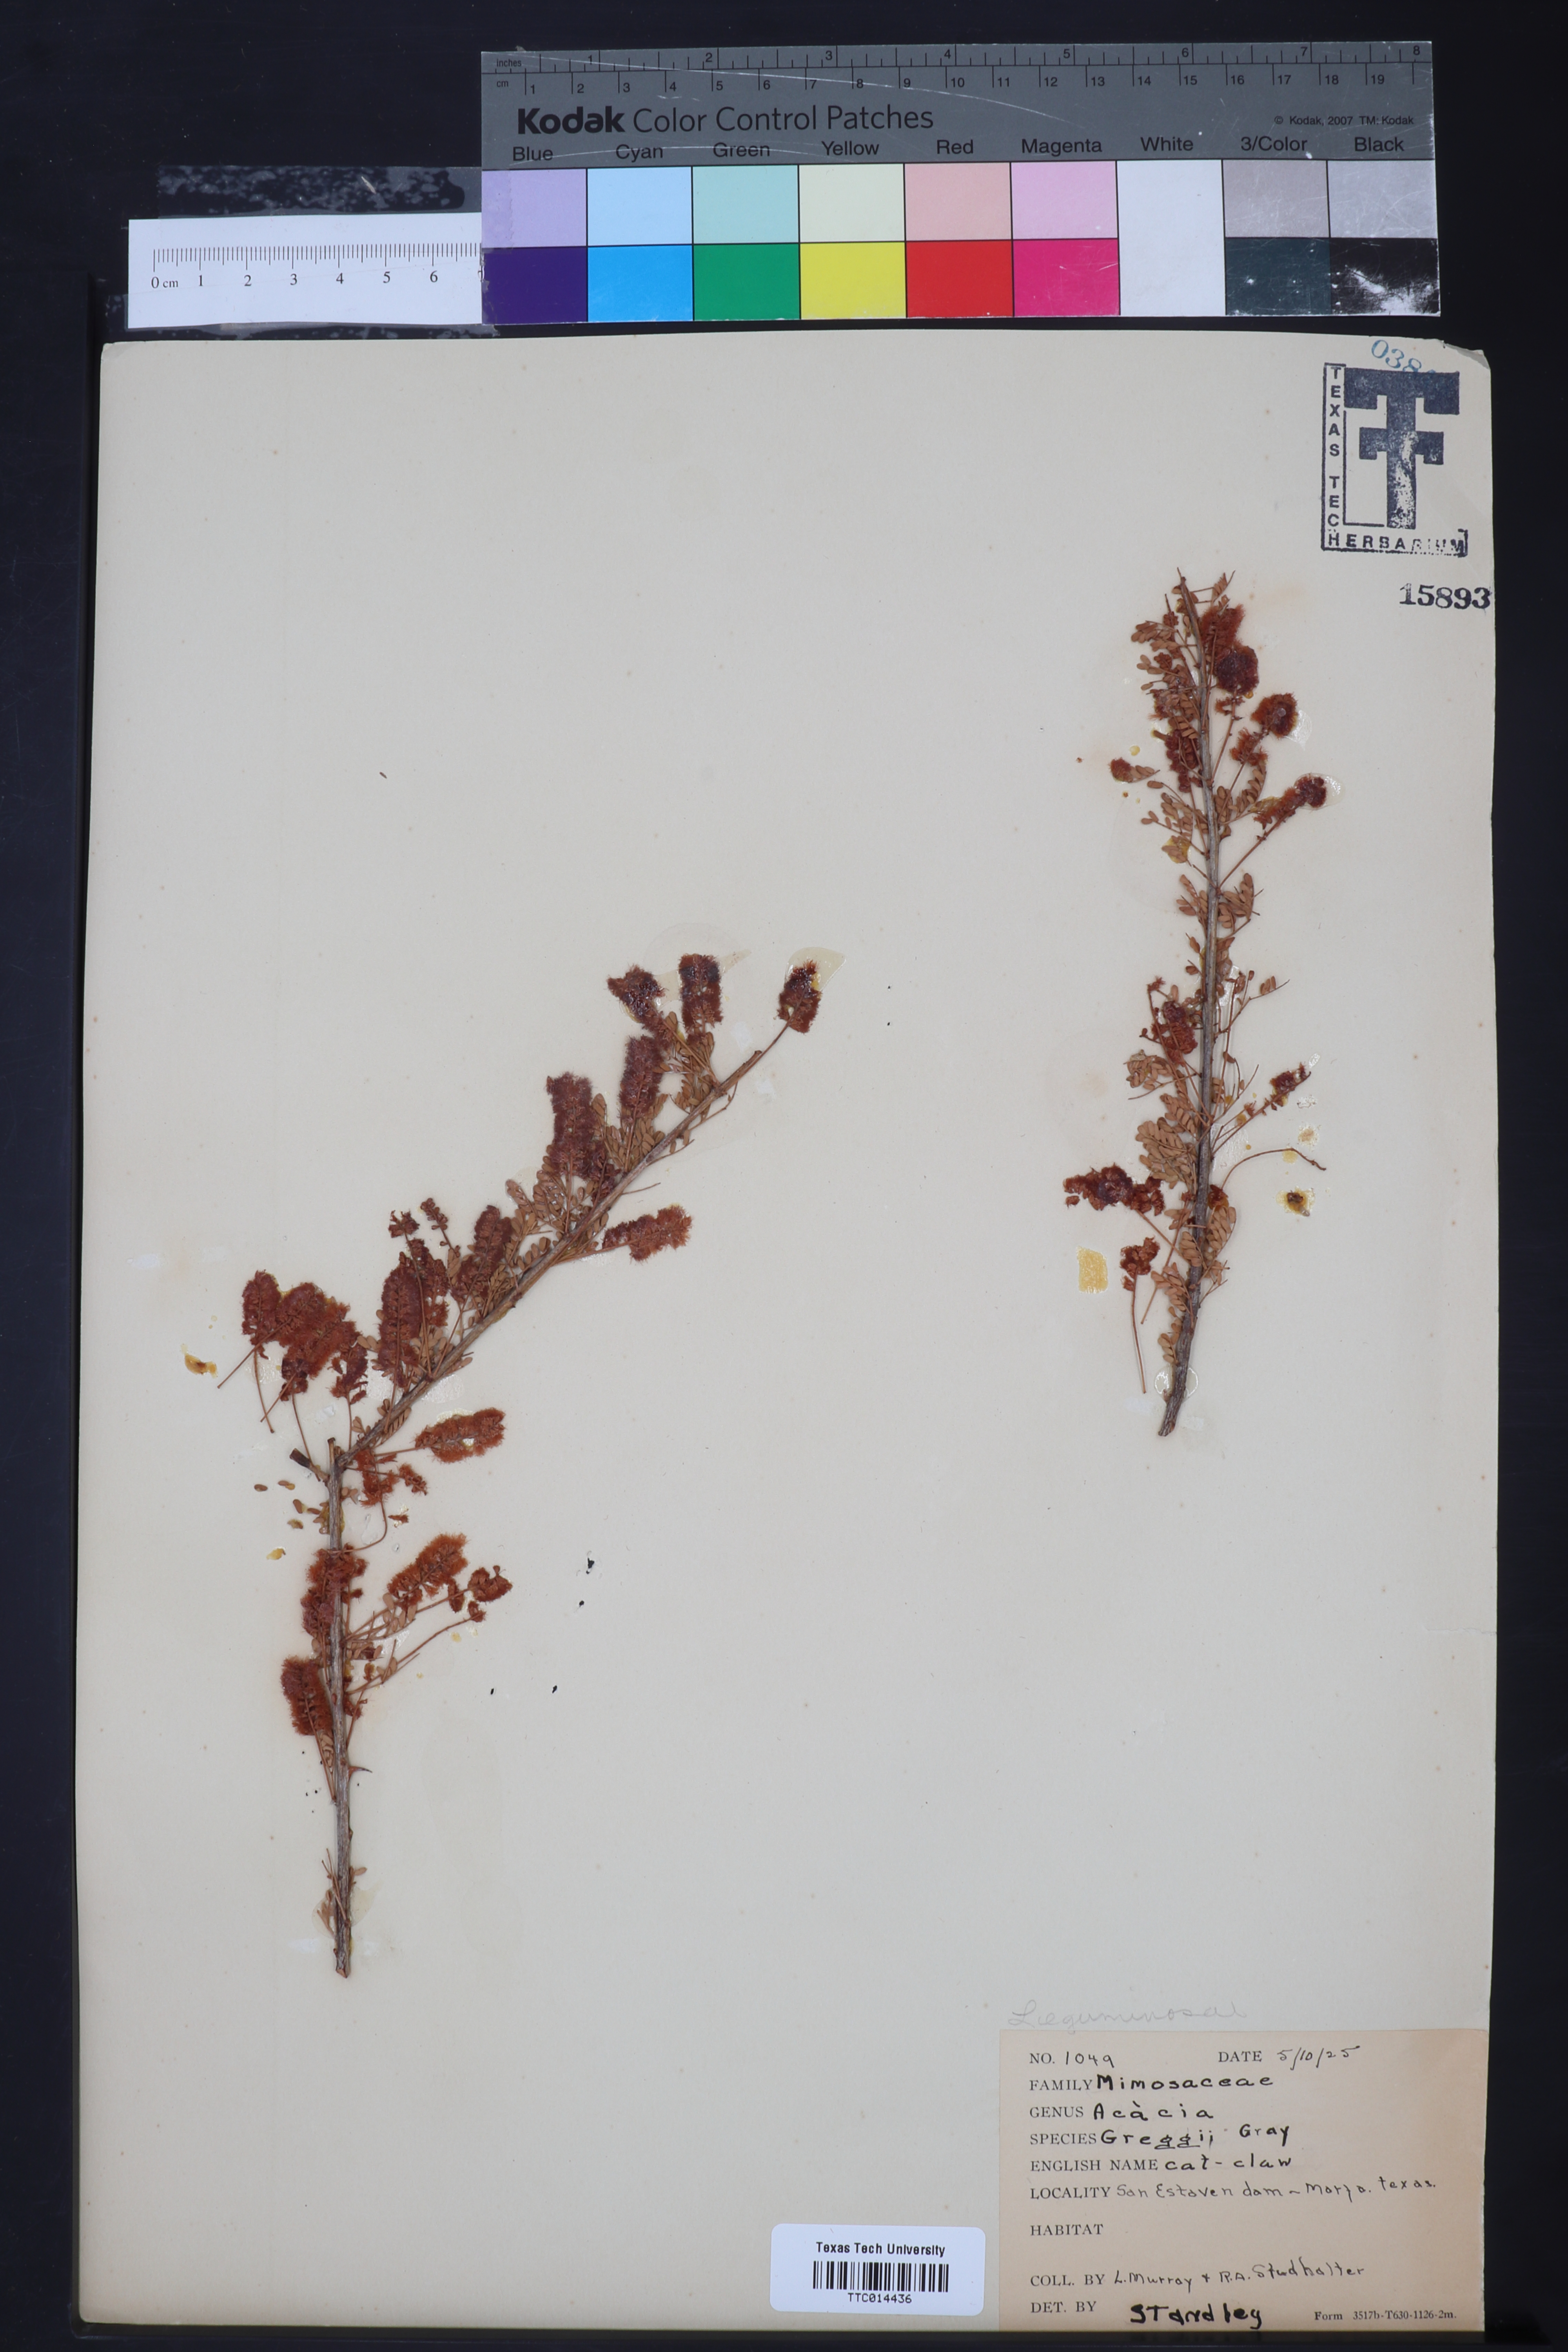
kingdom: Plantae
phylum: Tracheophyta
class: Magnoliopsida
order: Fabales
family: Fabaceae
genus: Senegalia
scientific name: Senegalia greggii
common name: Texas-mimosa
